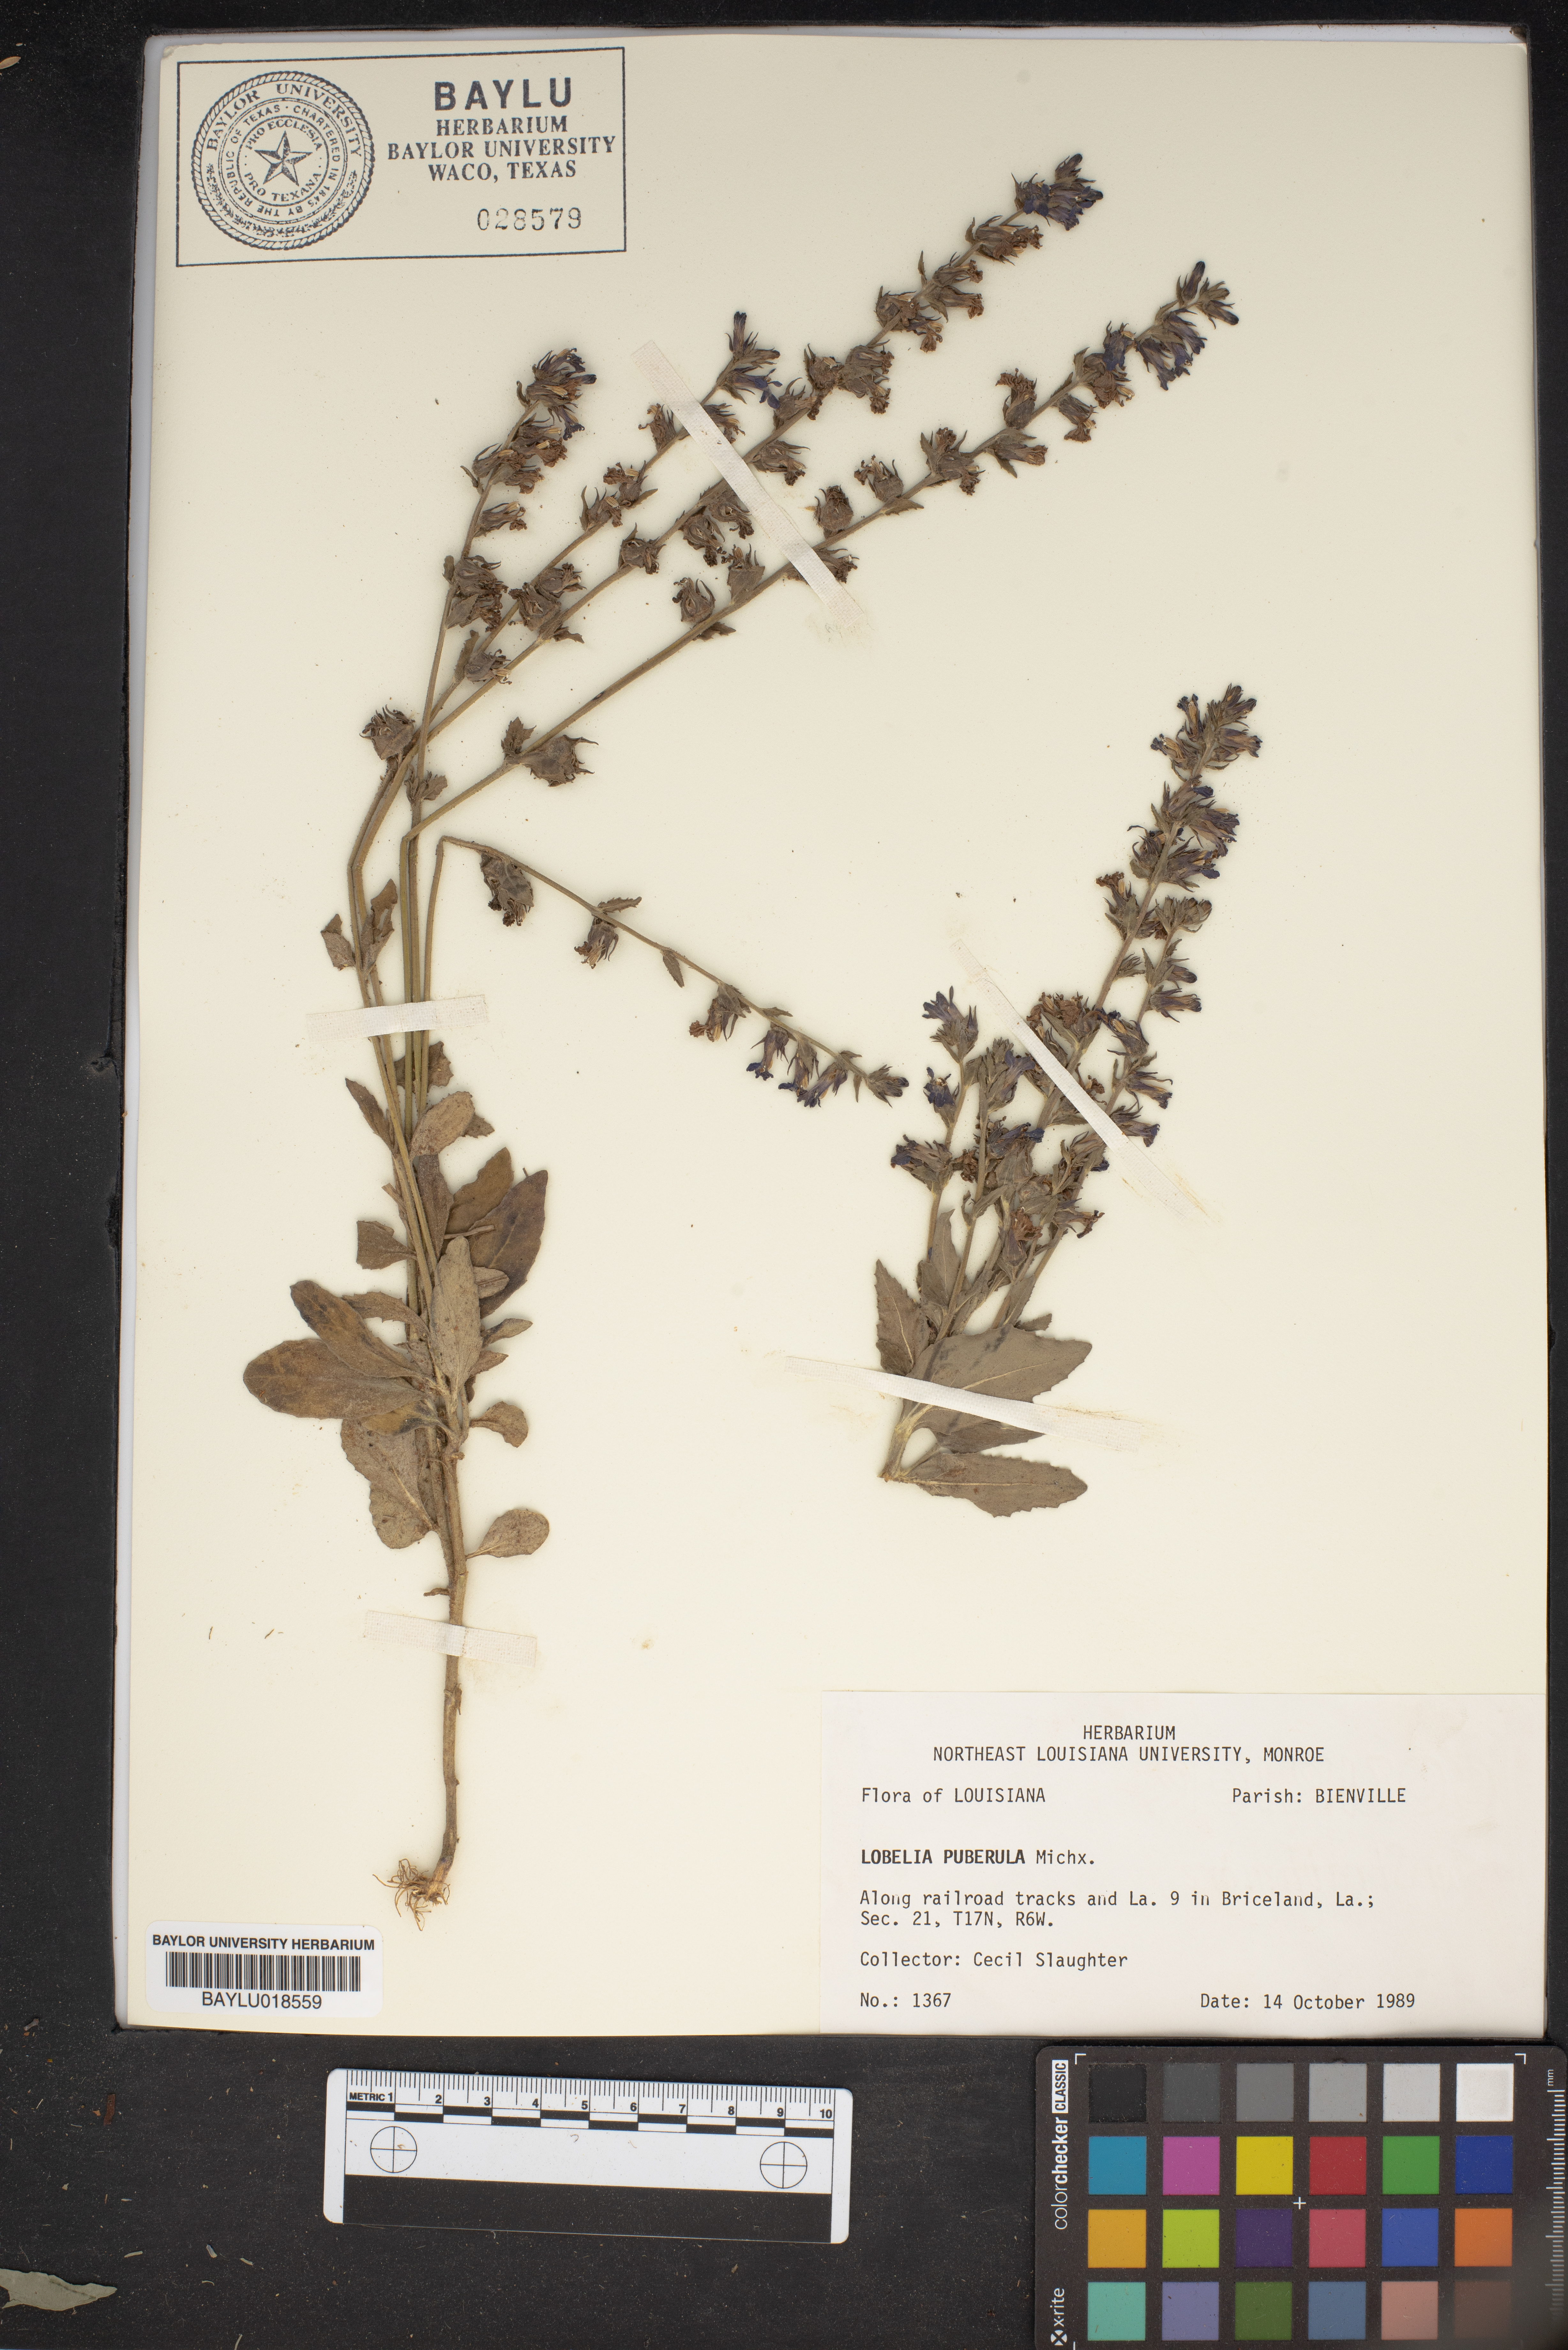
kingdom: Plantae
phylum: Tracheophyta
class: Magnoliopsida
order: Asterales
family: Campanulaceae
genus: Lobelia
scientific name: Lobelia puberula
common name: Purple dewdrop
